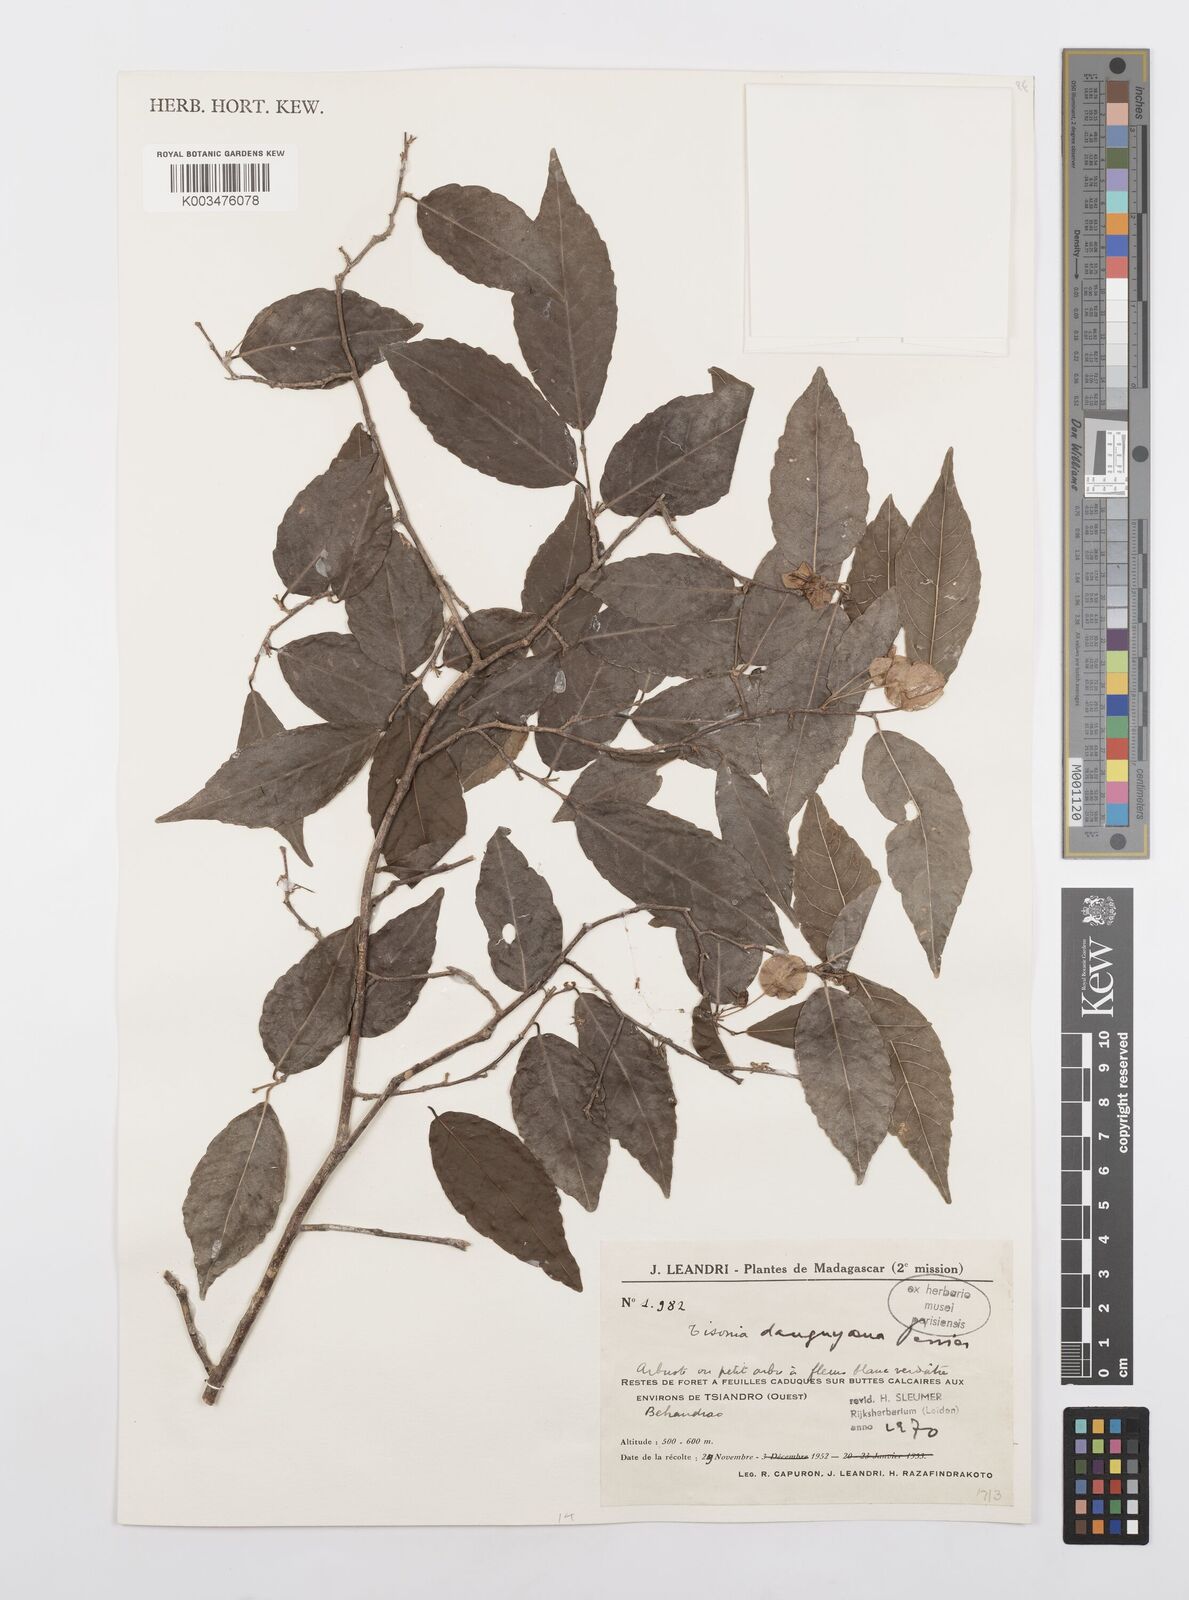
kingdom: Plantae
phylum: Tracheophyta
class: Magnoliopsida
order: Malpighiales
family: Salicaceae
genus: Tisonia
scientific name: Tisonia leandriana
